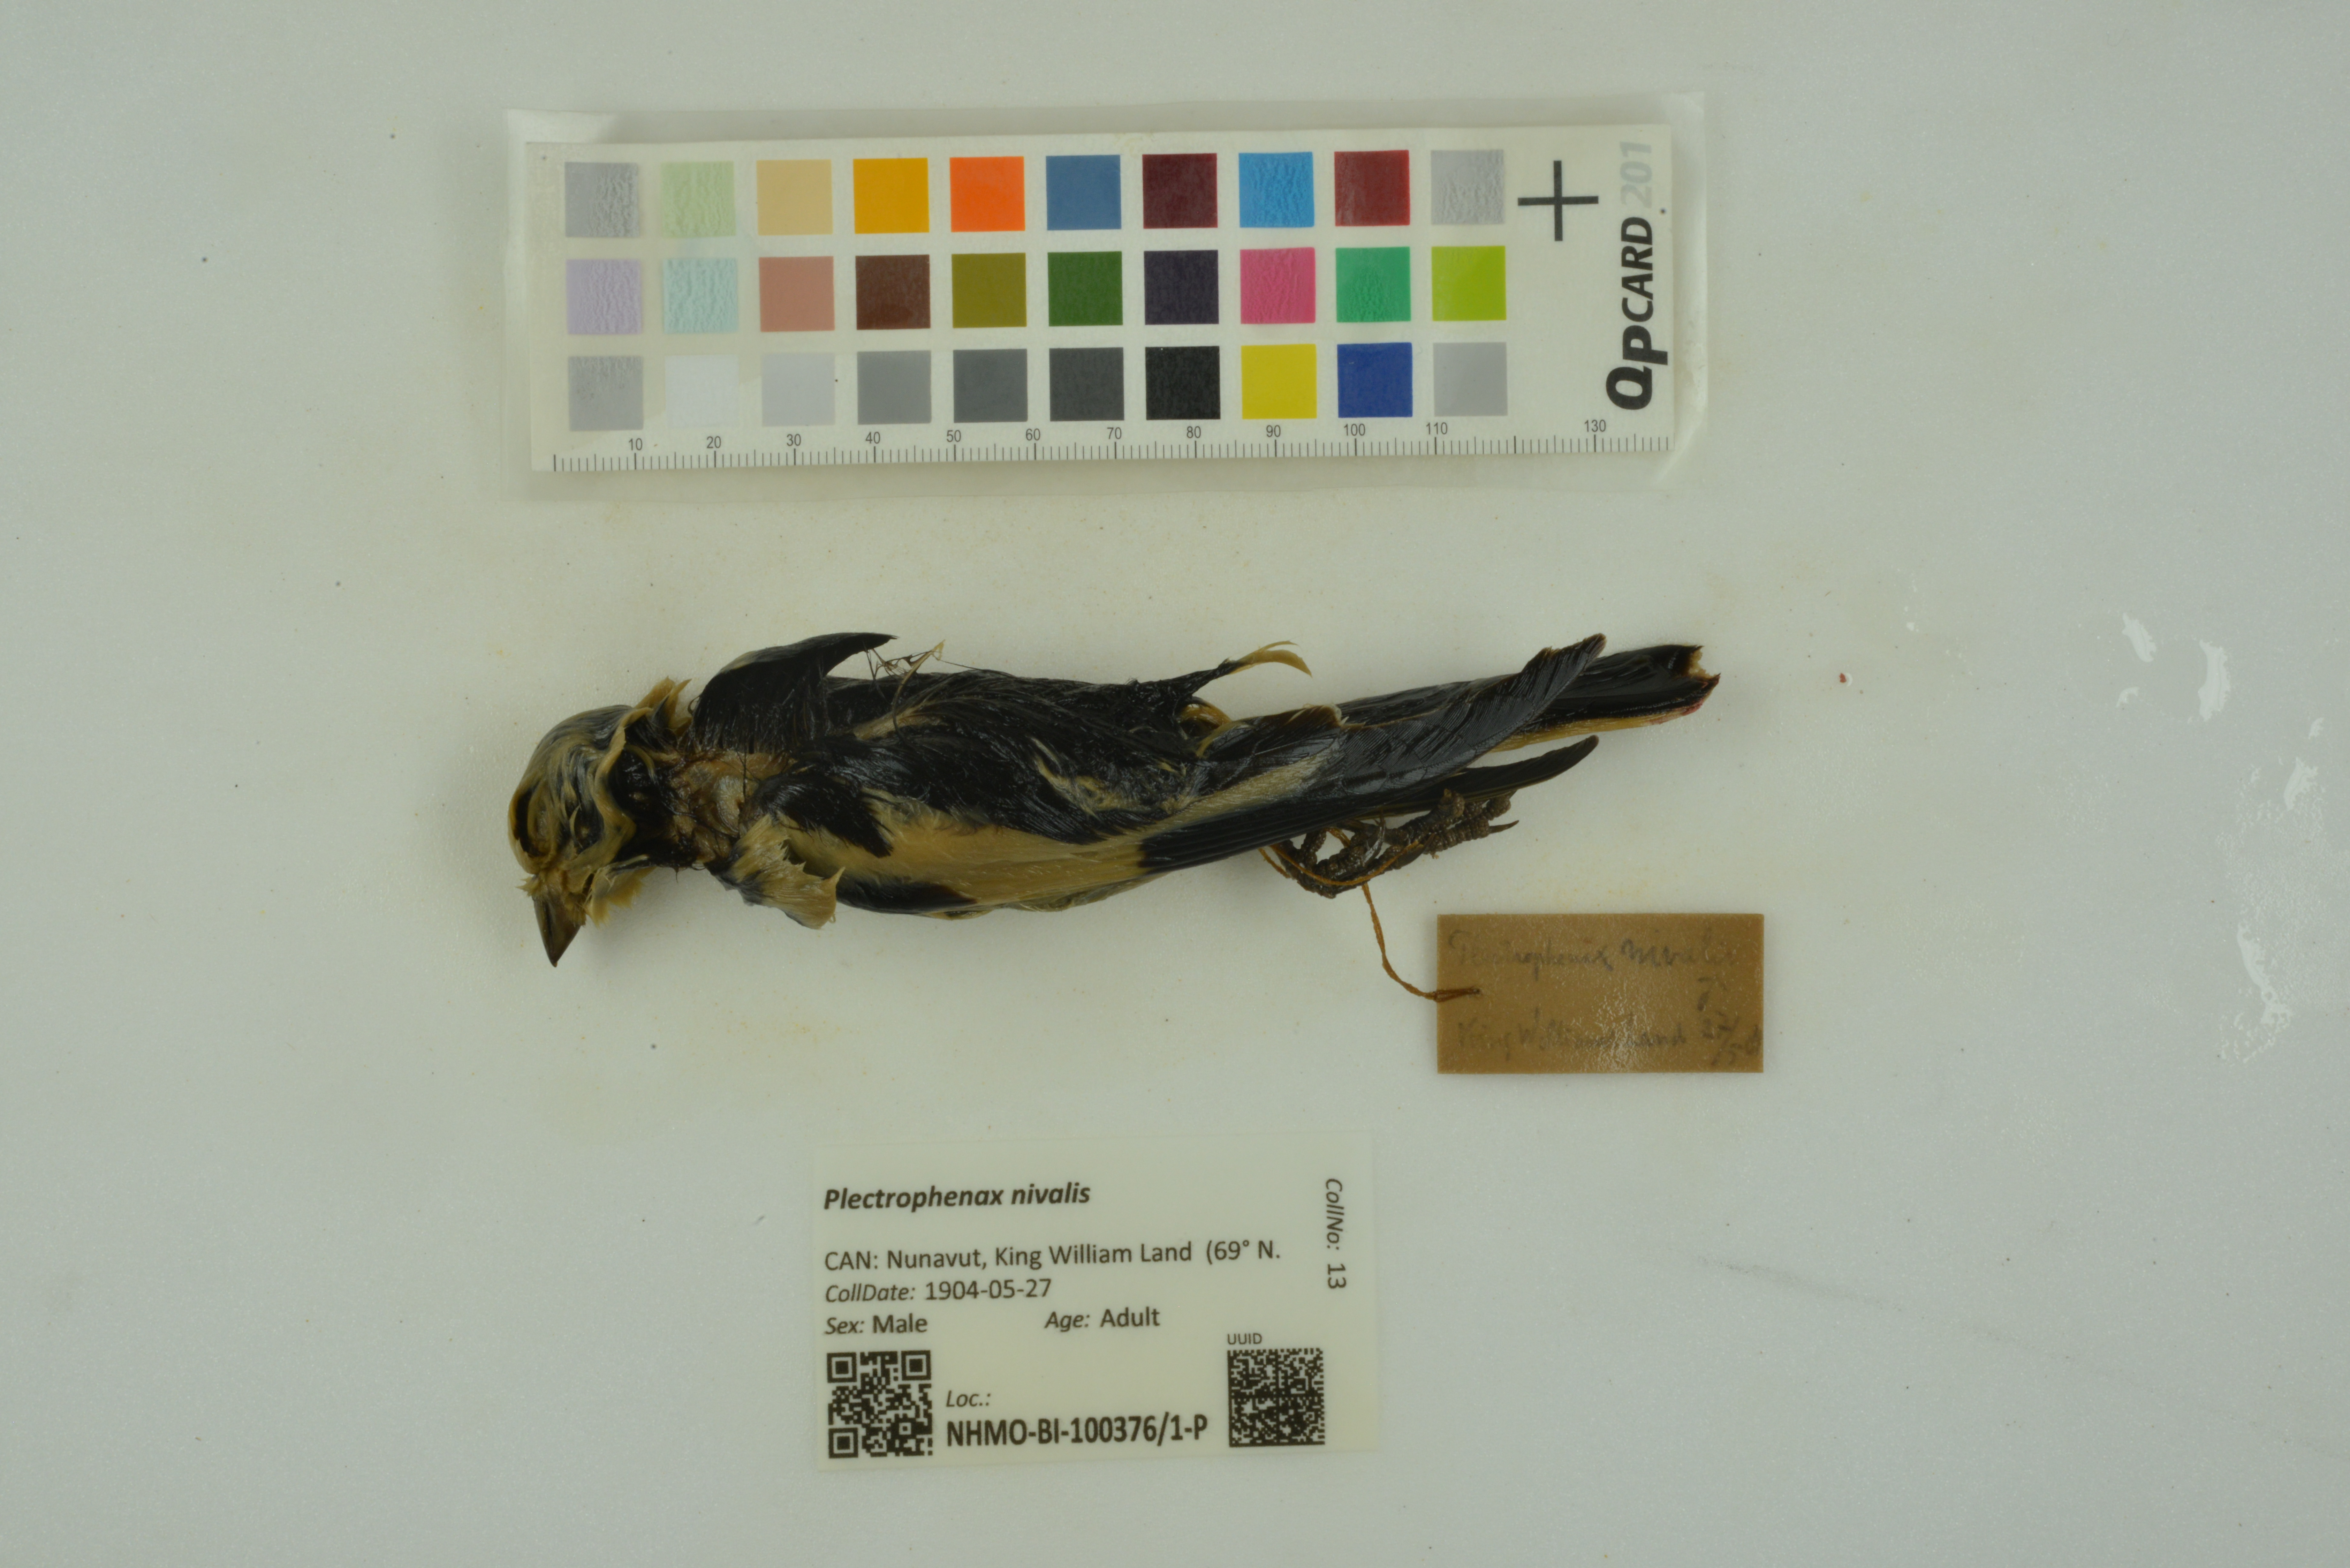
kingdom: Animalia
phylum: Chordata
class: Aves
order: Passeriformes
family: Calcariidae
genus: Plectrophenax
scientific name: Plectrophenax nivalis
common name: Snow bunting
